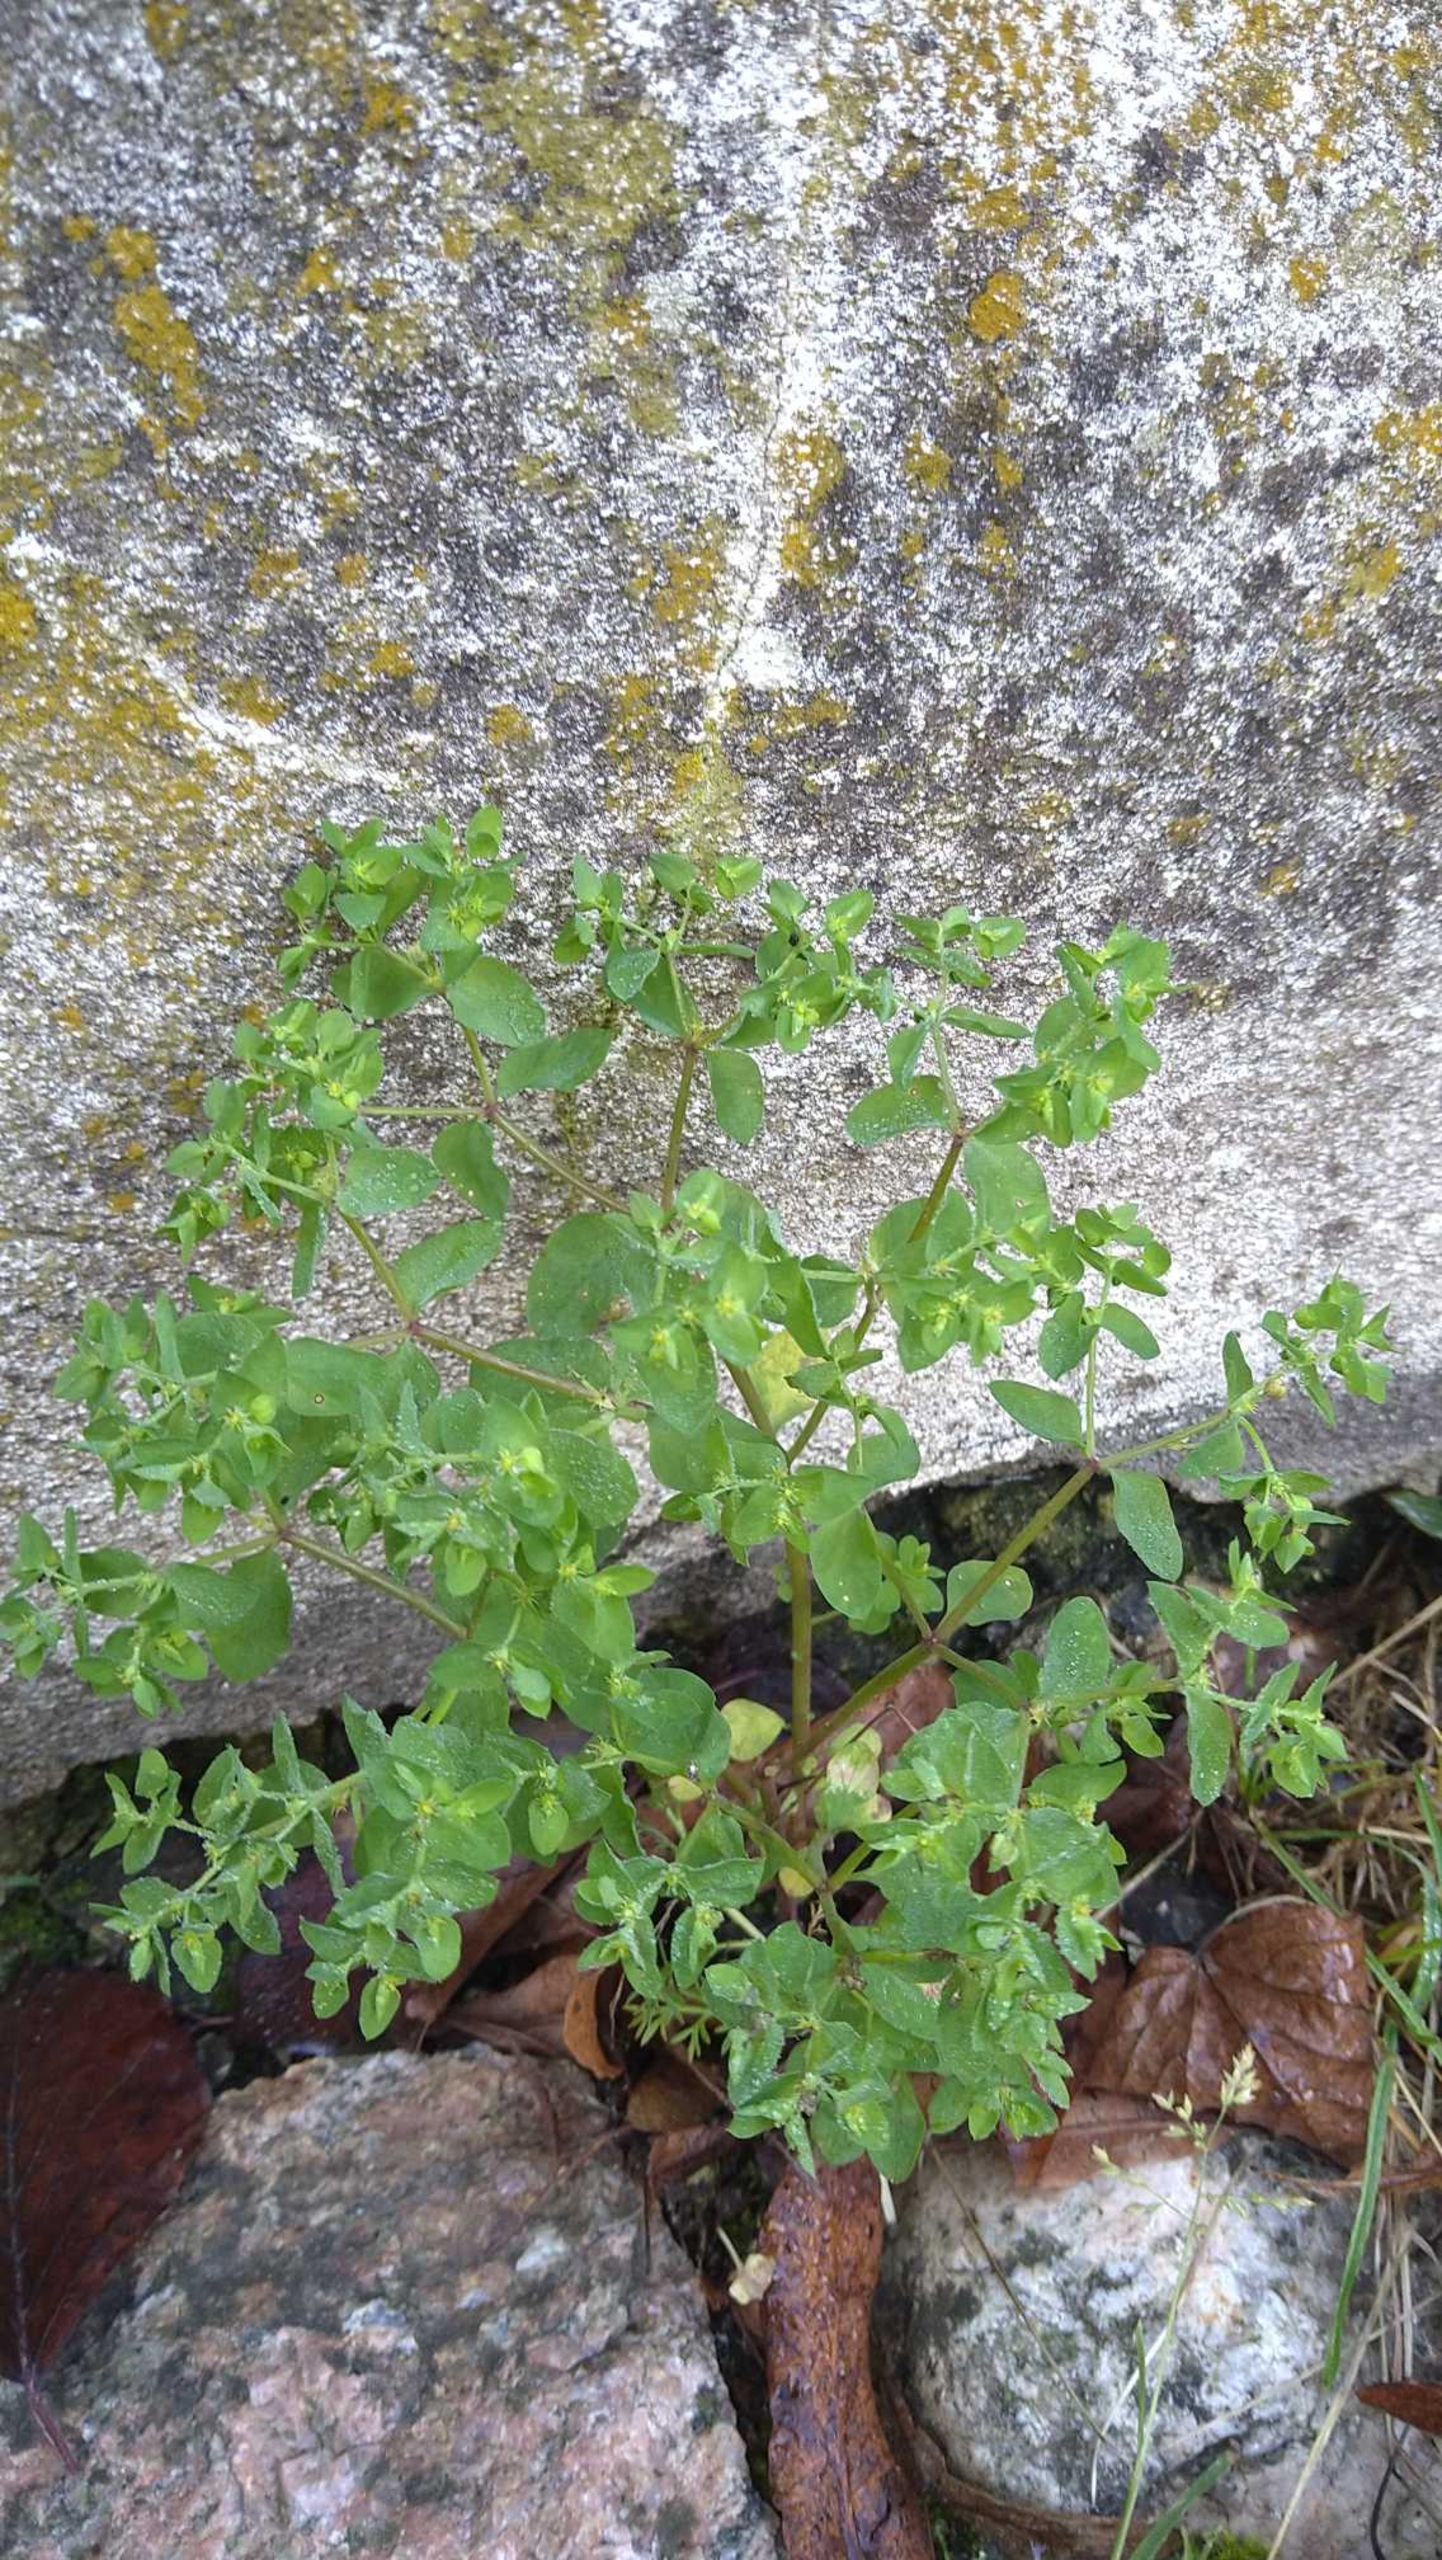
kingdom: Plantae
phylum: Tracheophyta
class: Magnoliopsida
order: Malpighiales
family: Euphorbiaceae
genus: Euphorbia
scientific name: Euphorbia peplus
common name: Gaffel-vortemælk
